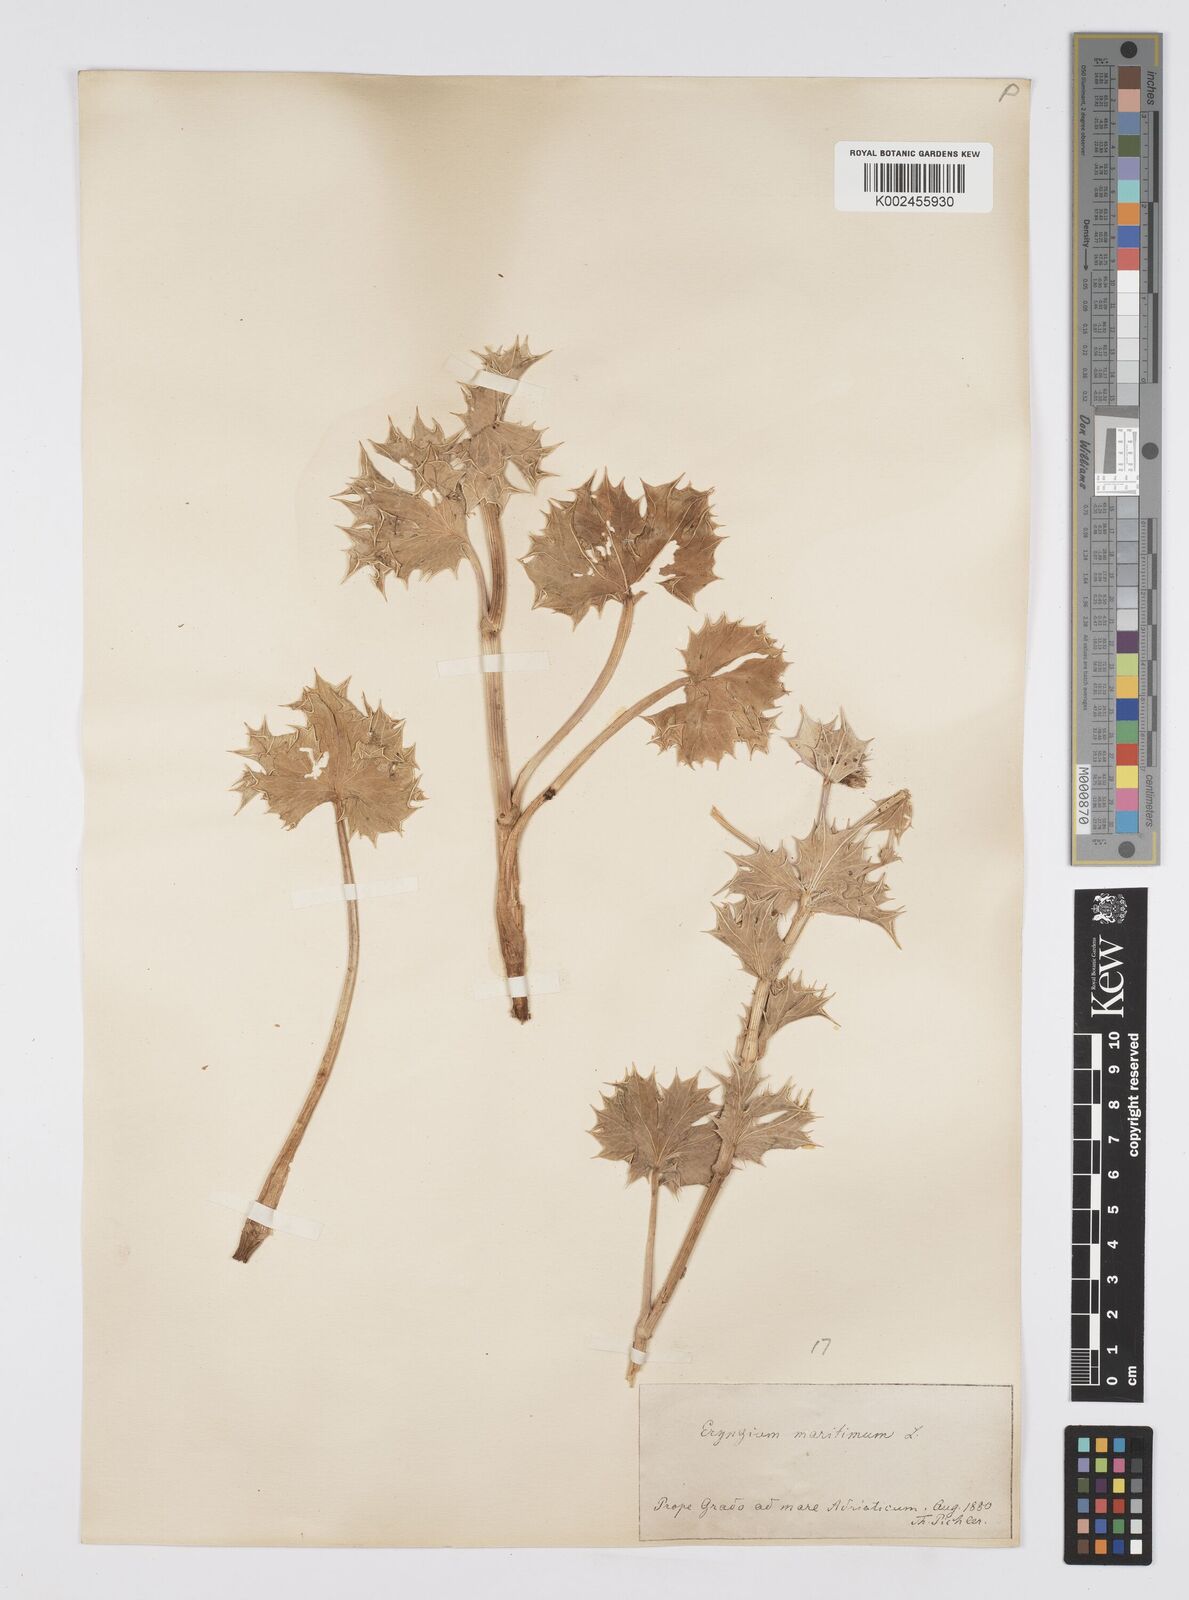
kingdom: Plantae
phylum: Tracheophyta
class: Magnoliopsida
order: Apiales
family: Apiaceae
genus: Eryngium
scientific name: Eryngium maritimum
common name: Sea-holly
